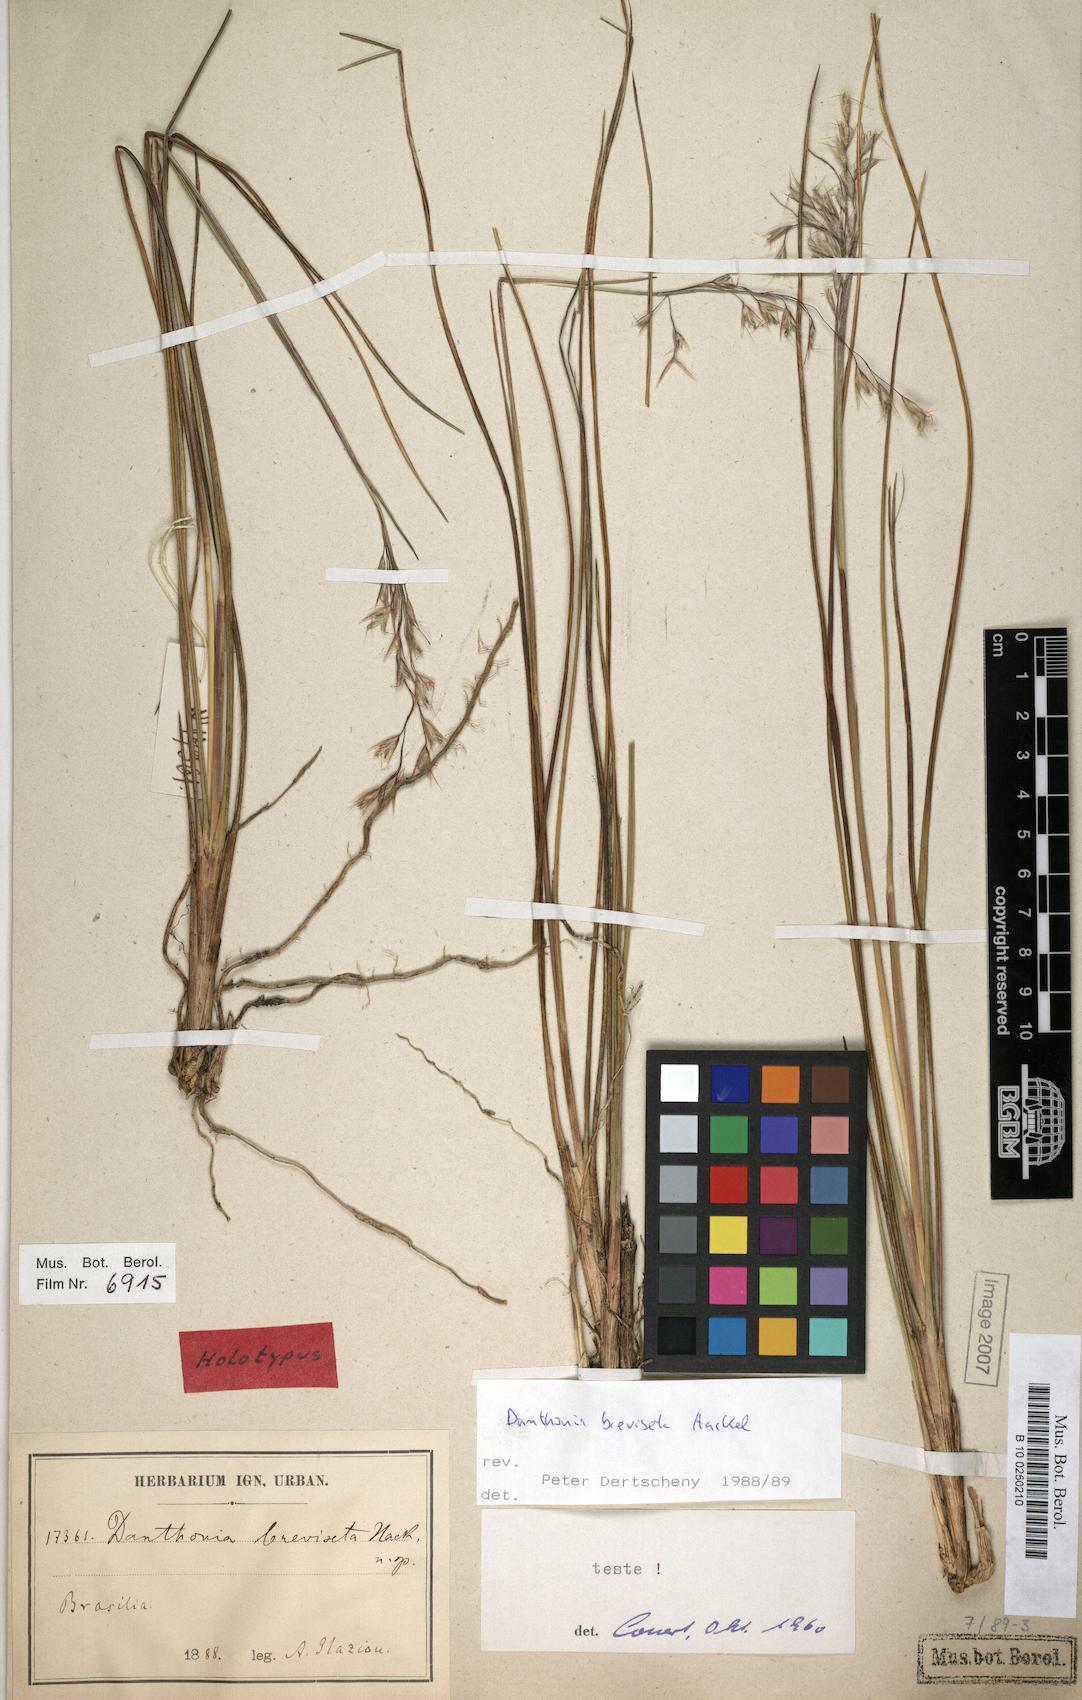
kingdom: Plantae
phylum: Tracheophyta
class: Liliopsida
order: Poales
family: Poaceae
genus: Danthonia
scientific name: Danthonia breviseta
